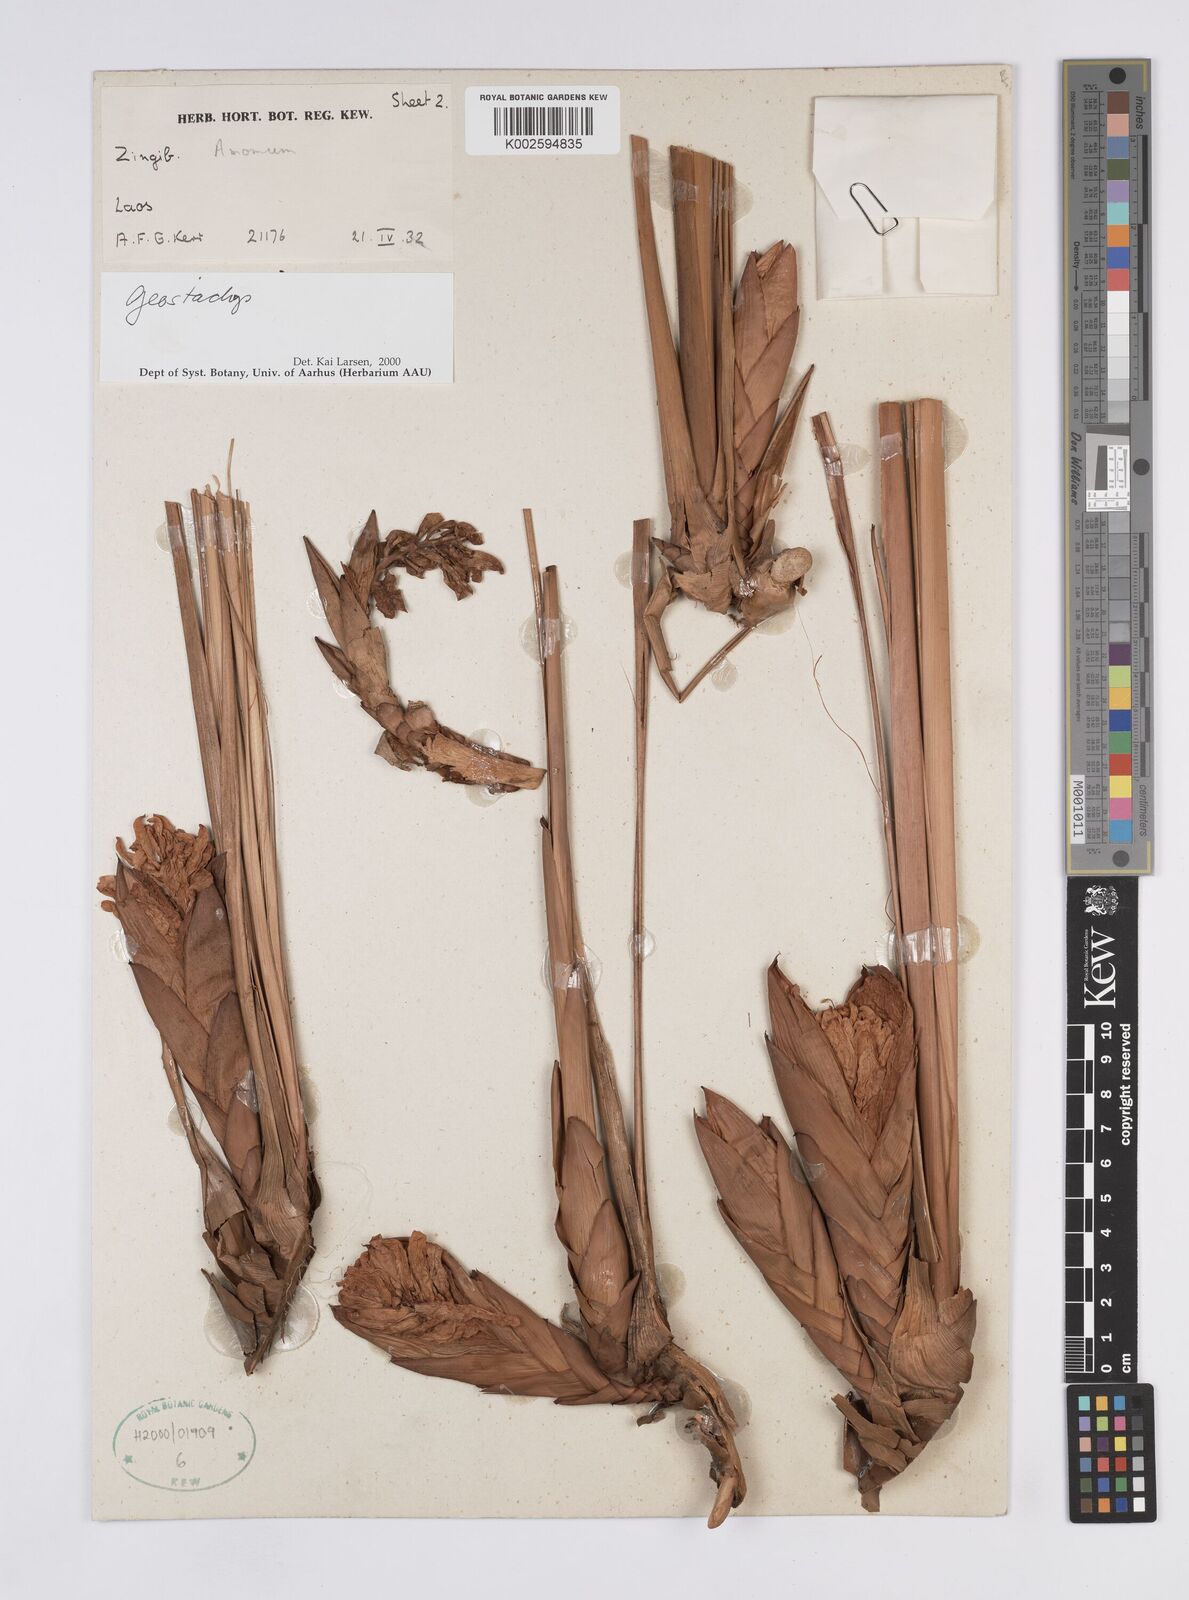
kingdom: Plantae
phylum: Tracheophyta
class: Liliopsida
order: Zingiberales
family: Zingiberaceae
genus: Geostachys
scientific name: Geostachys
